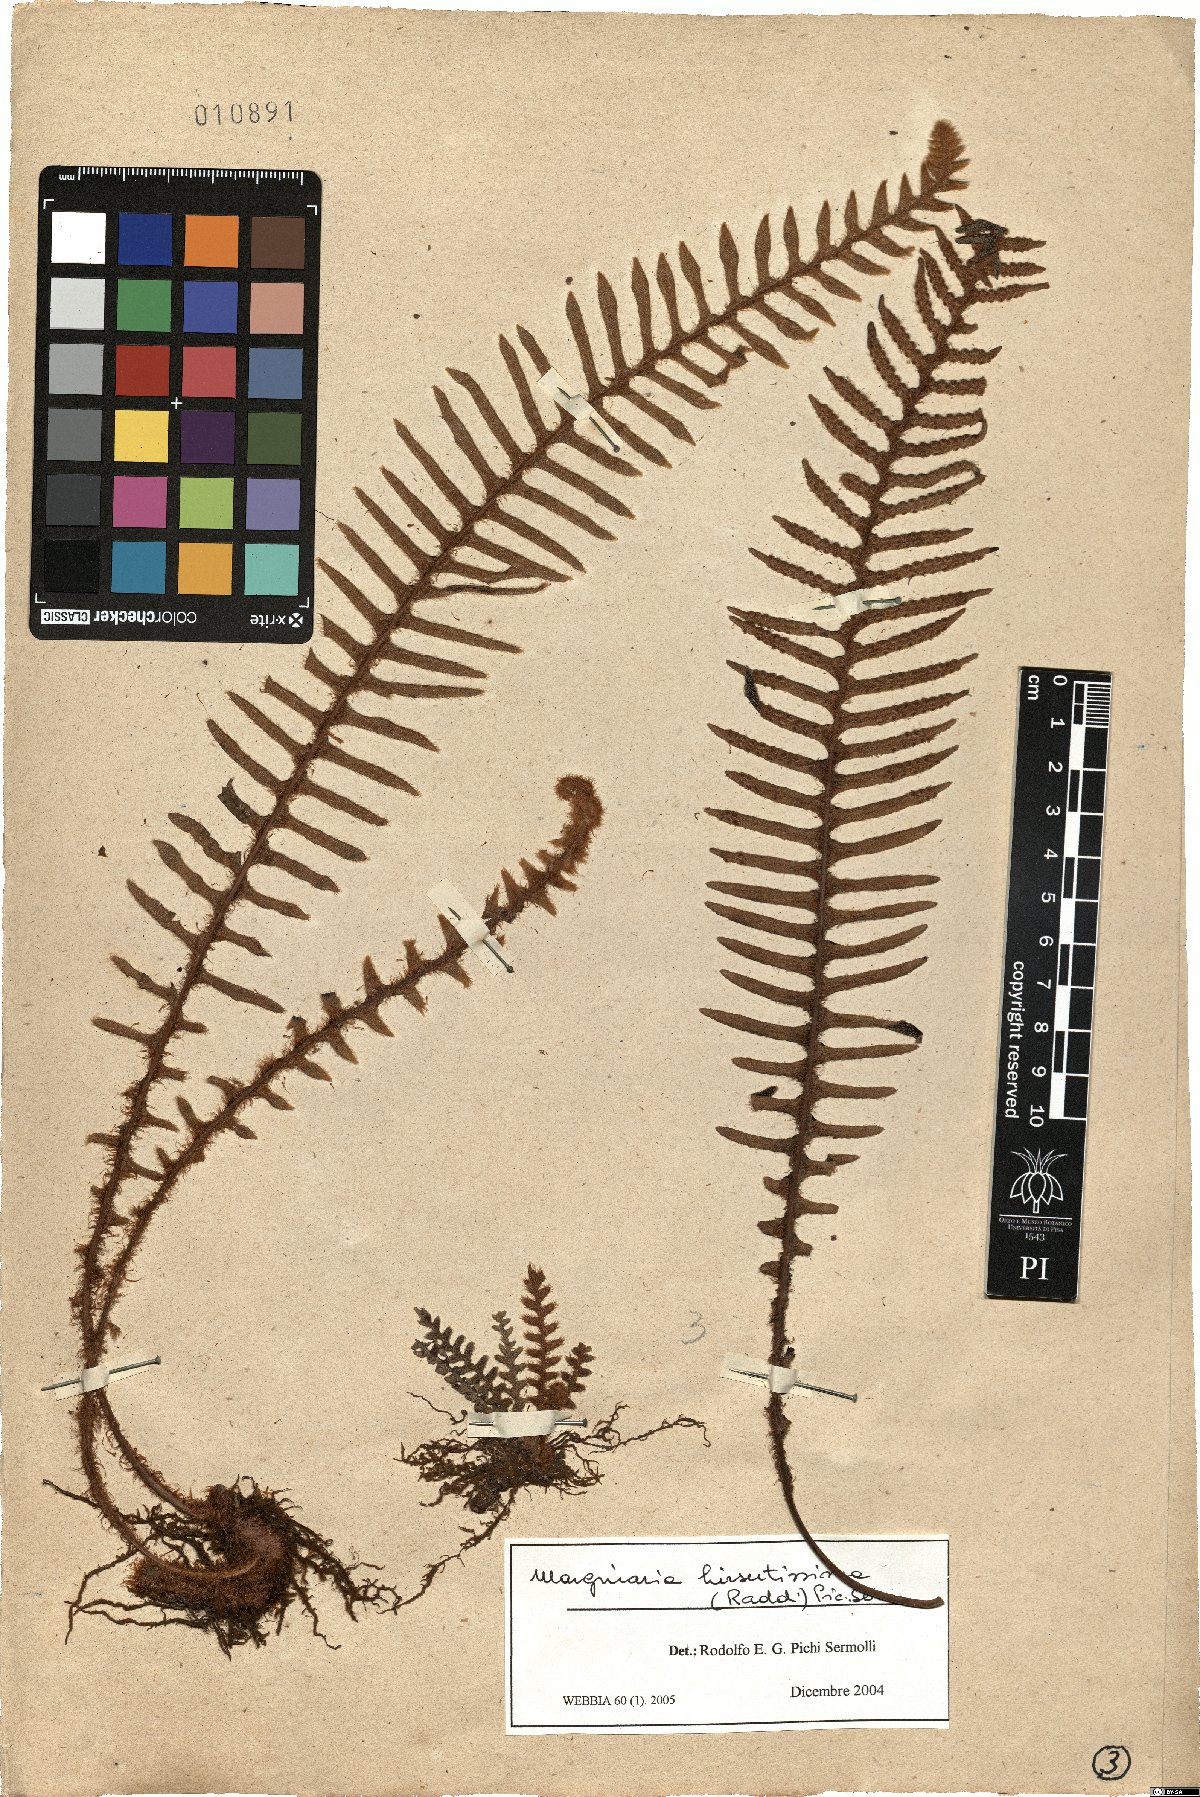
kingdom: Plantae
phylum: Tracheophyta
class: Polypodiopsida
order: Polypodiales
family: Polypodiaceae
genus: Pleopeltis
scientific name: Pleopeltis hirsutissima
